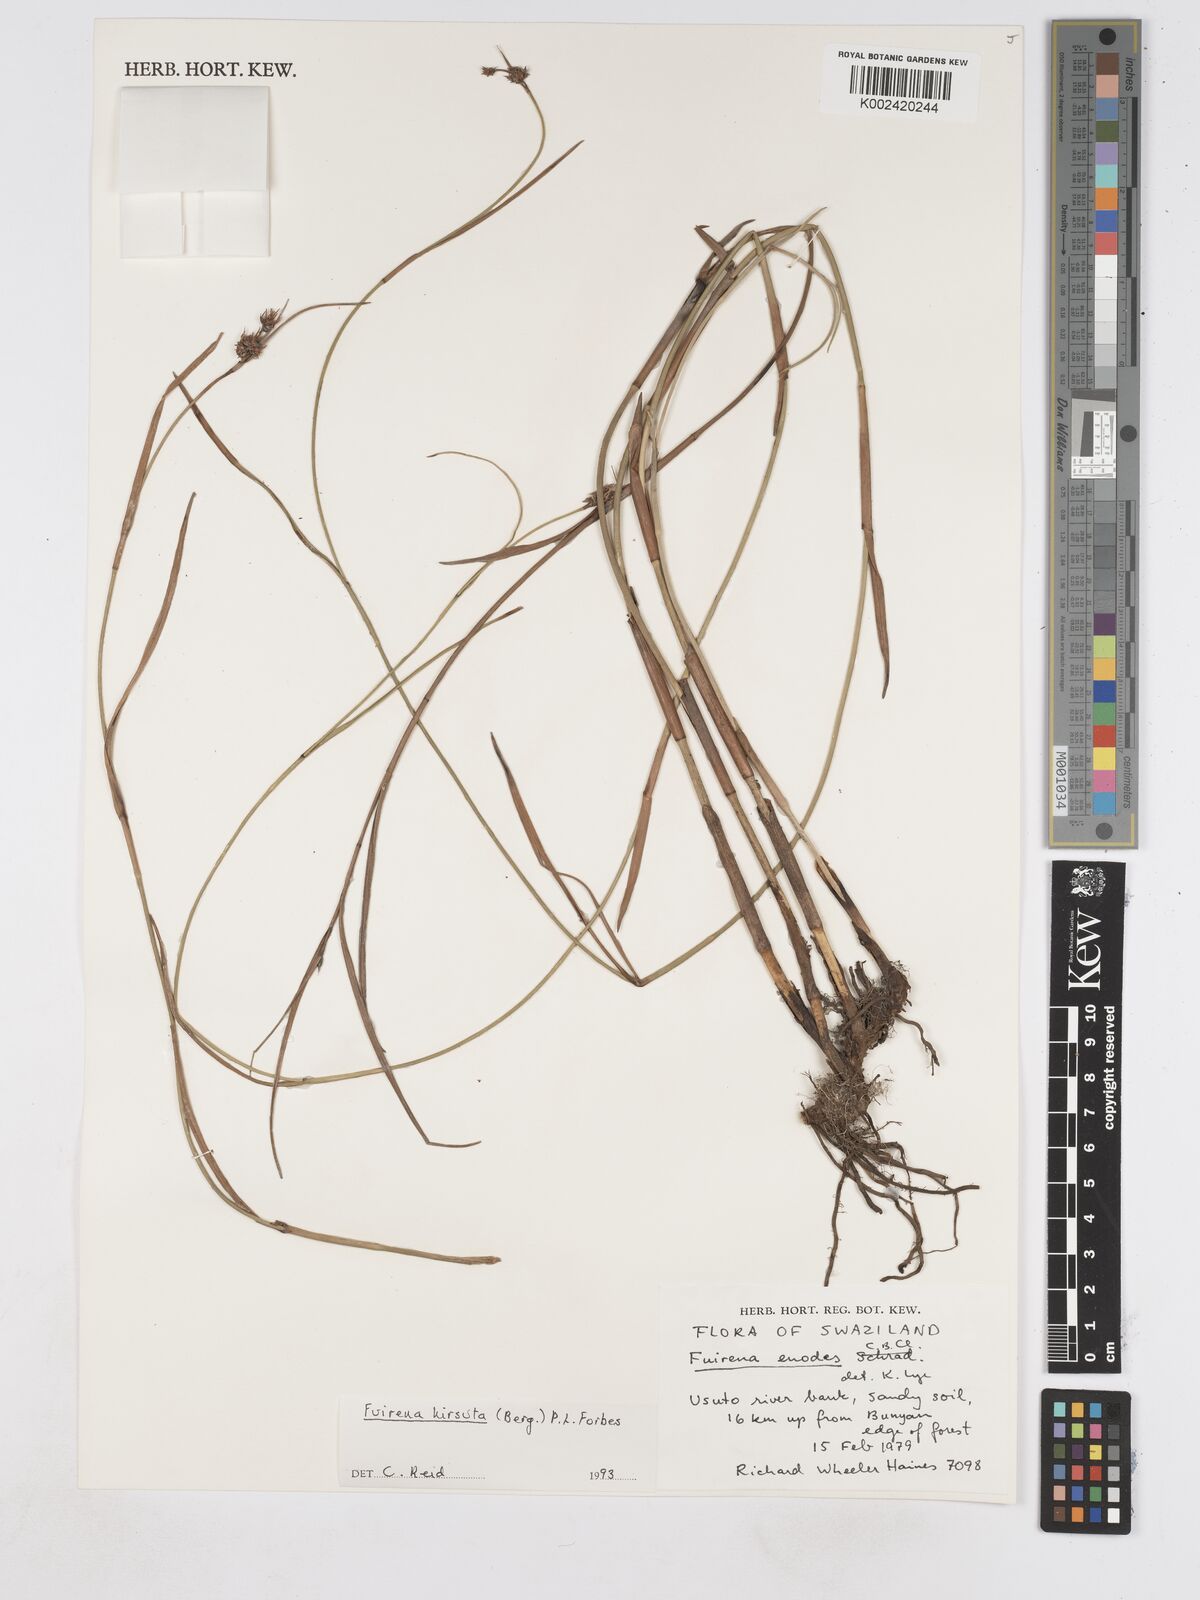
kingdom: Plantae
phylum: Tracheophyta
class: Liliopsida
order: Poales
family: Cyperaceae
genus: Fuirena
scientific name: Fuirena hirsuta
